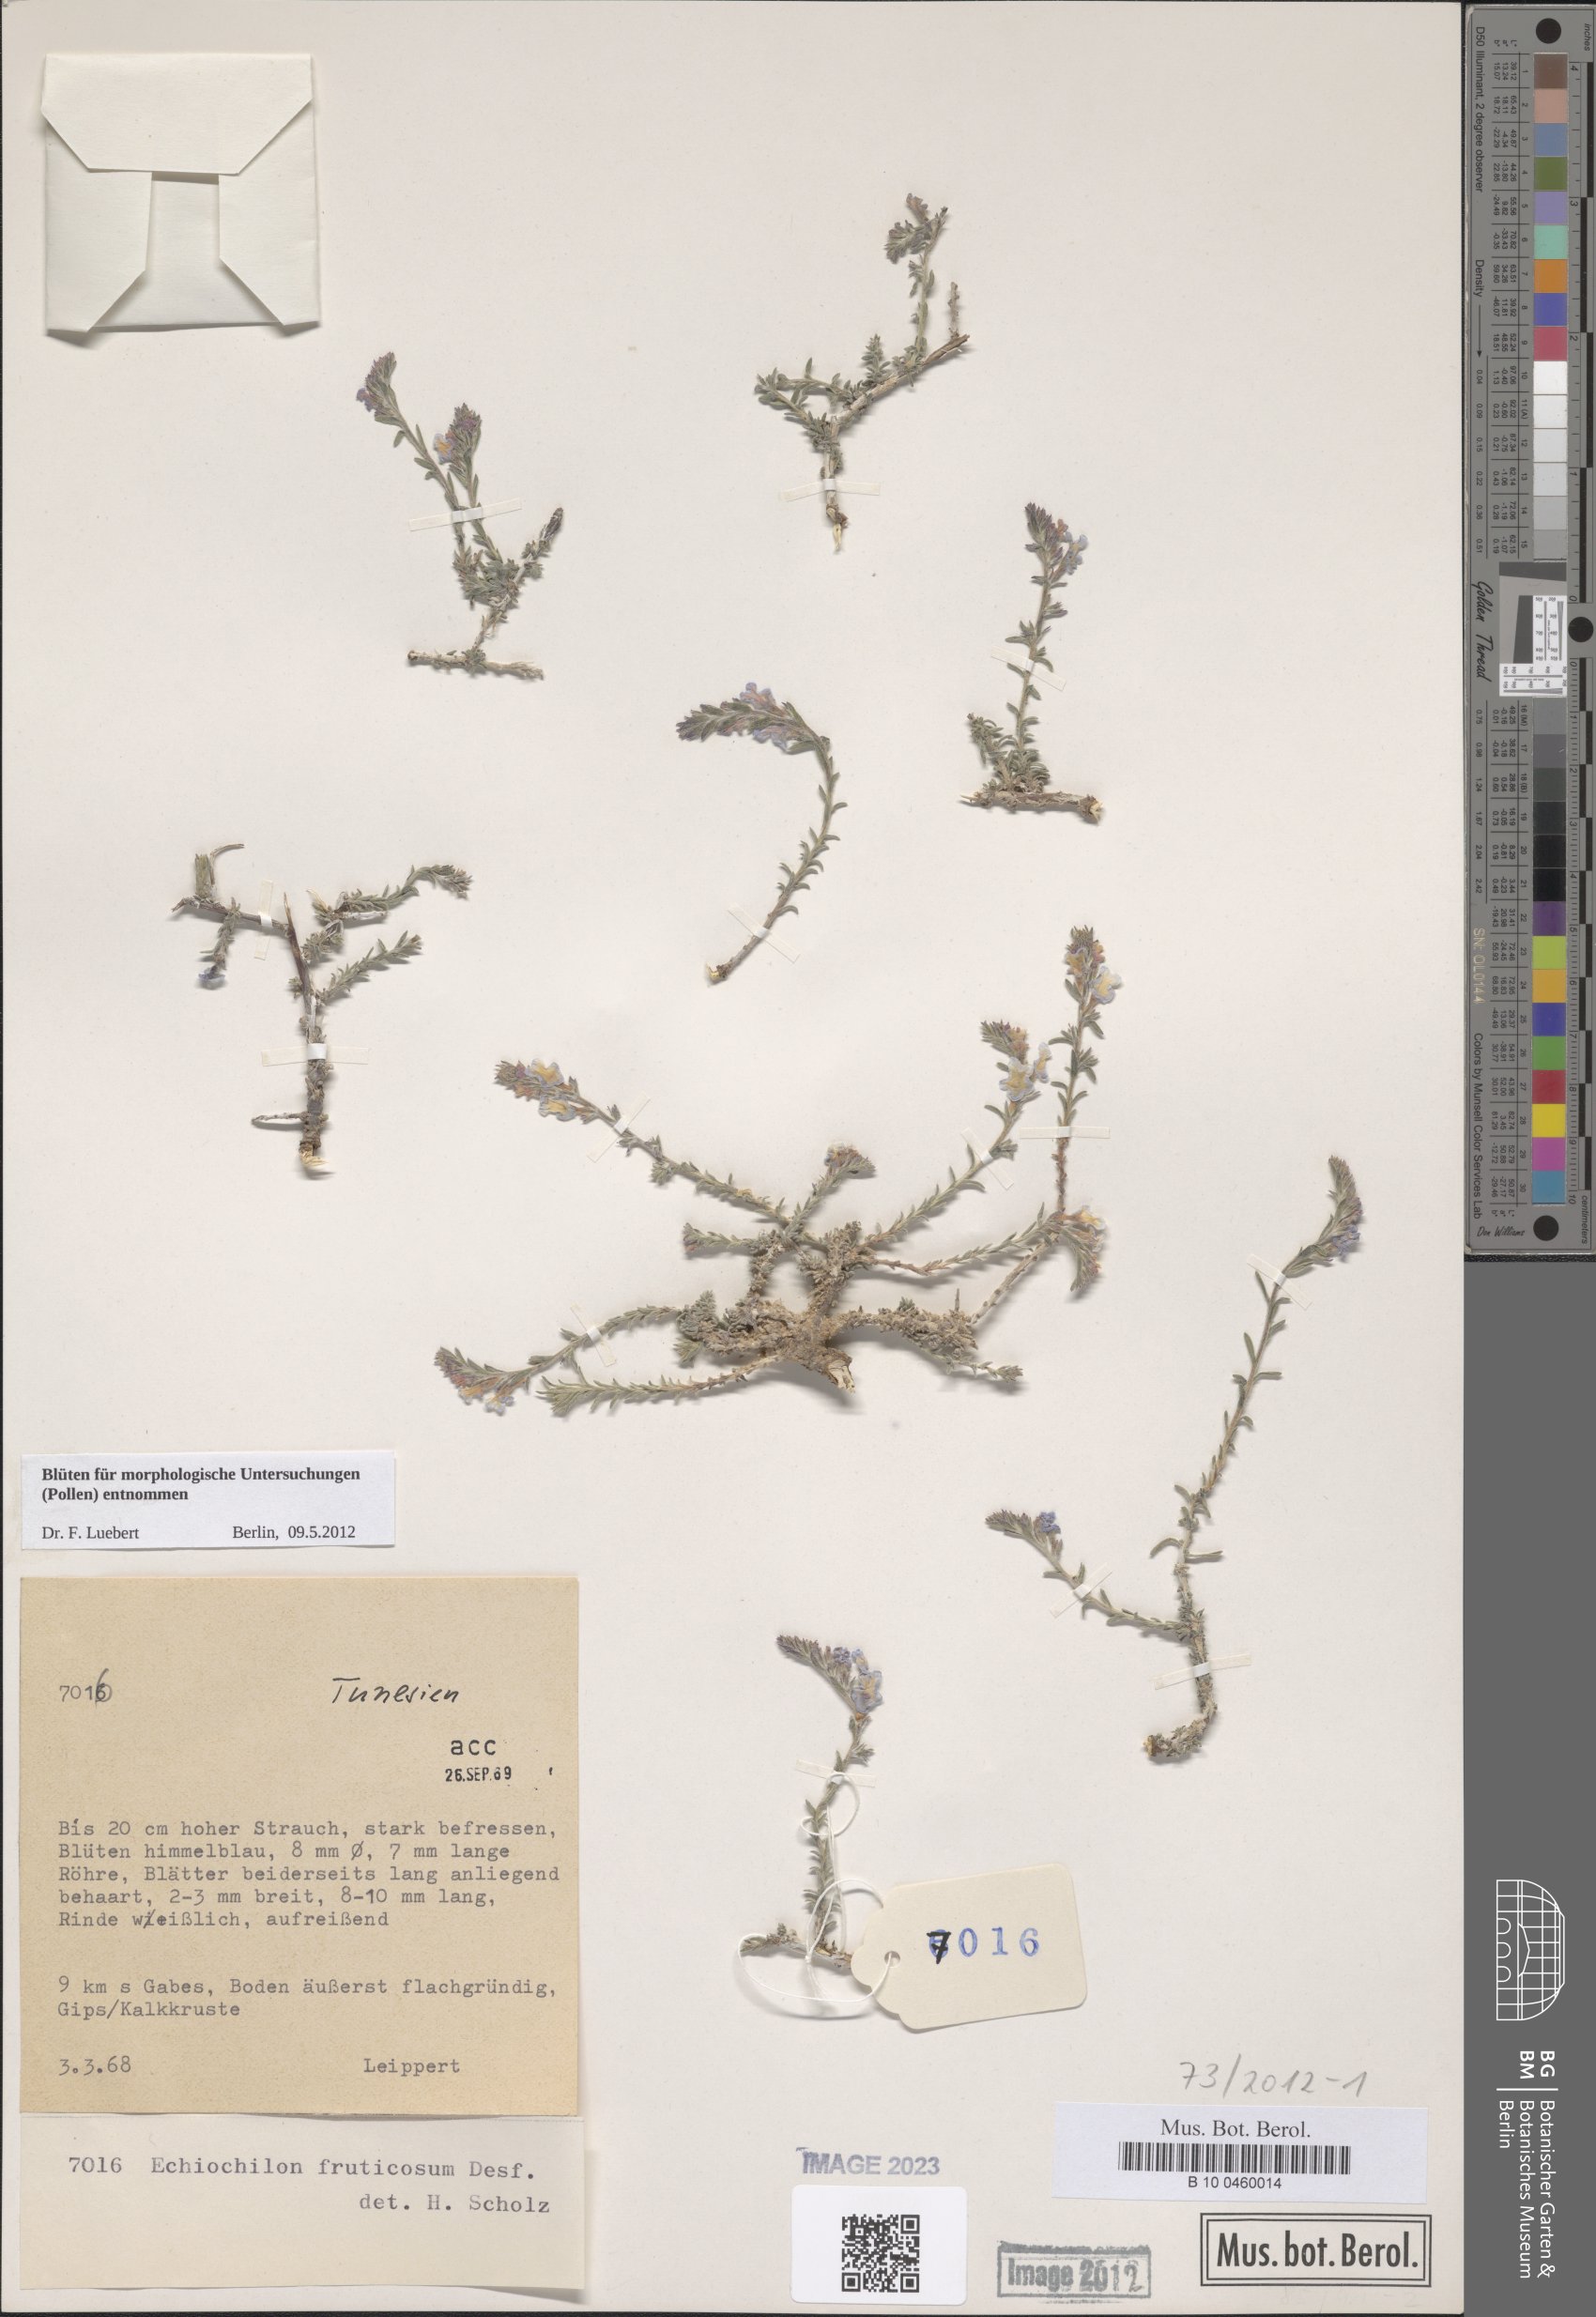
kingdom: Plantae
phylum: Tracheophyta
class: Magnoliopsida
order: Boraginales
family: Boraginaceae
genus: Echiochilon
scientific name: Echiochilon fruticosum
